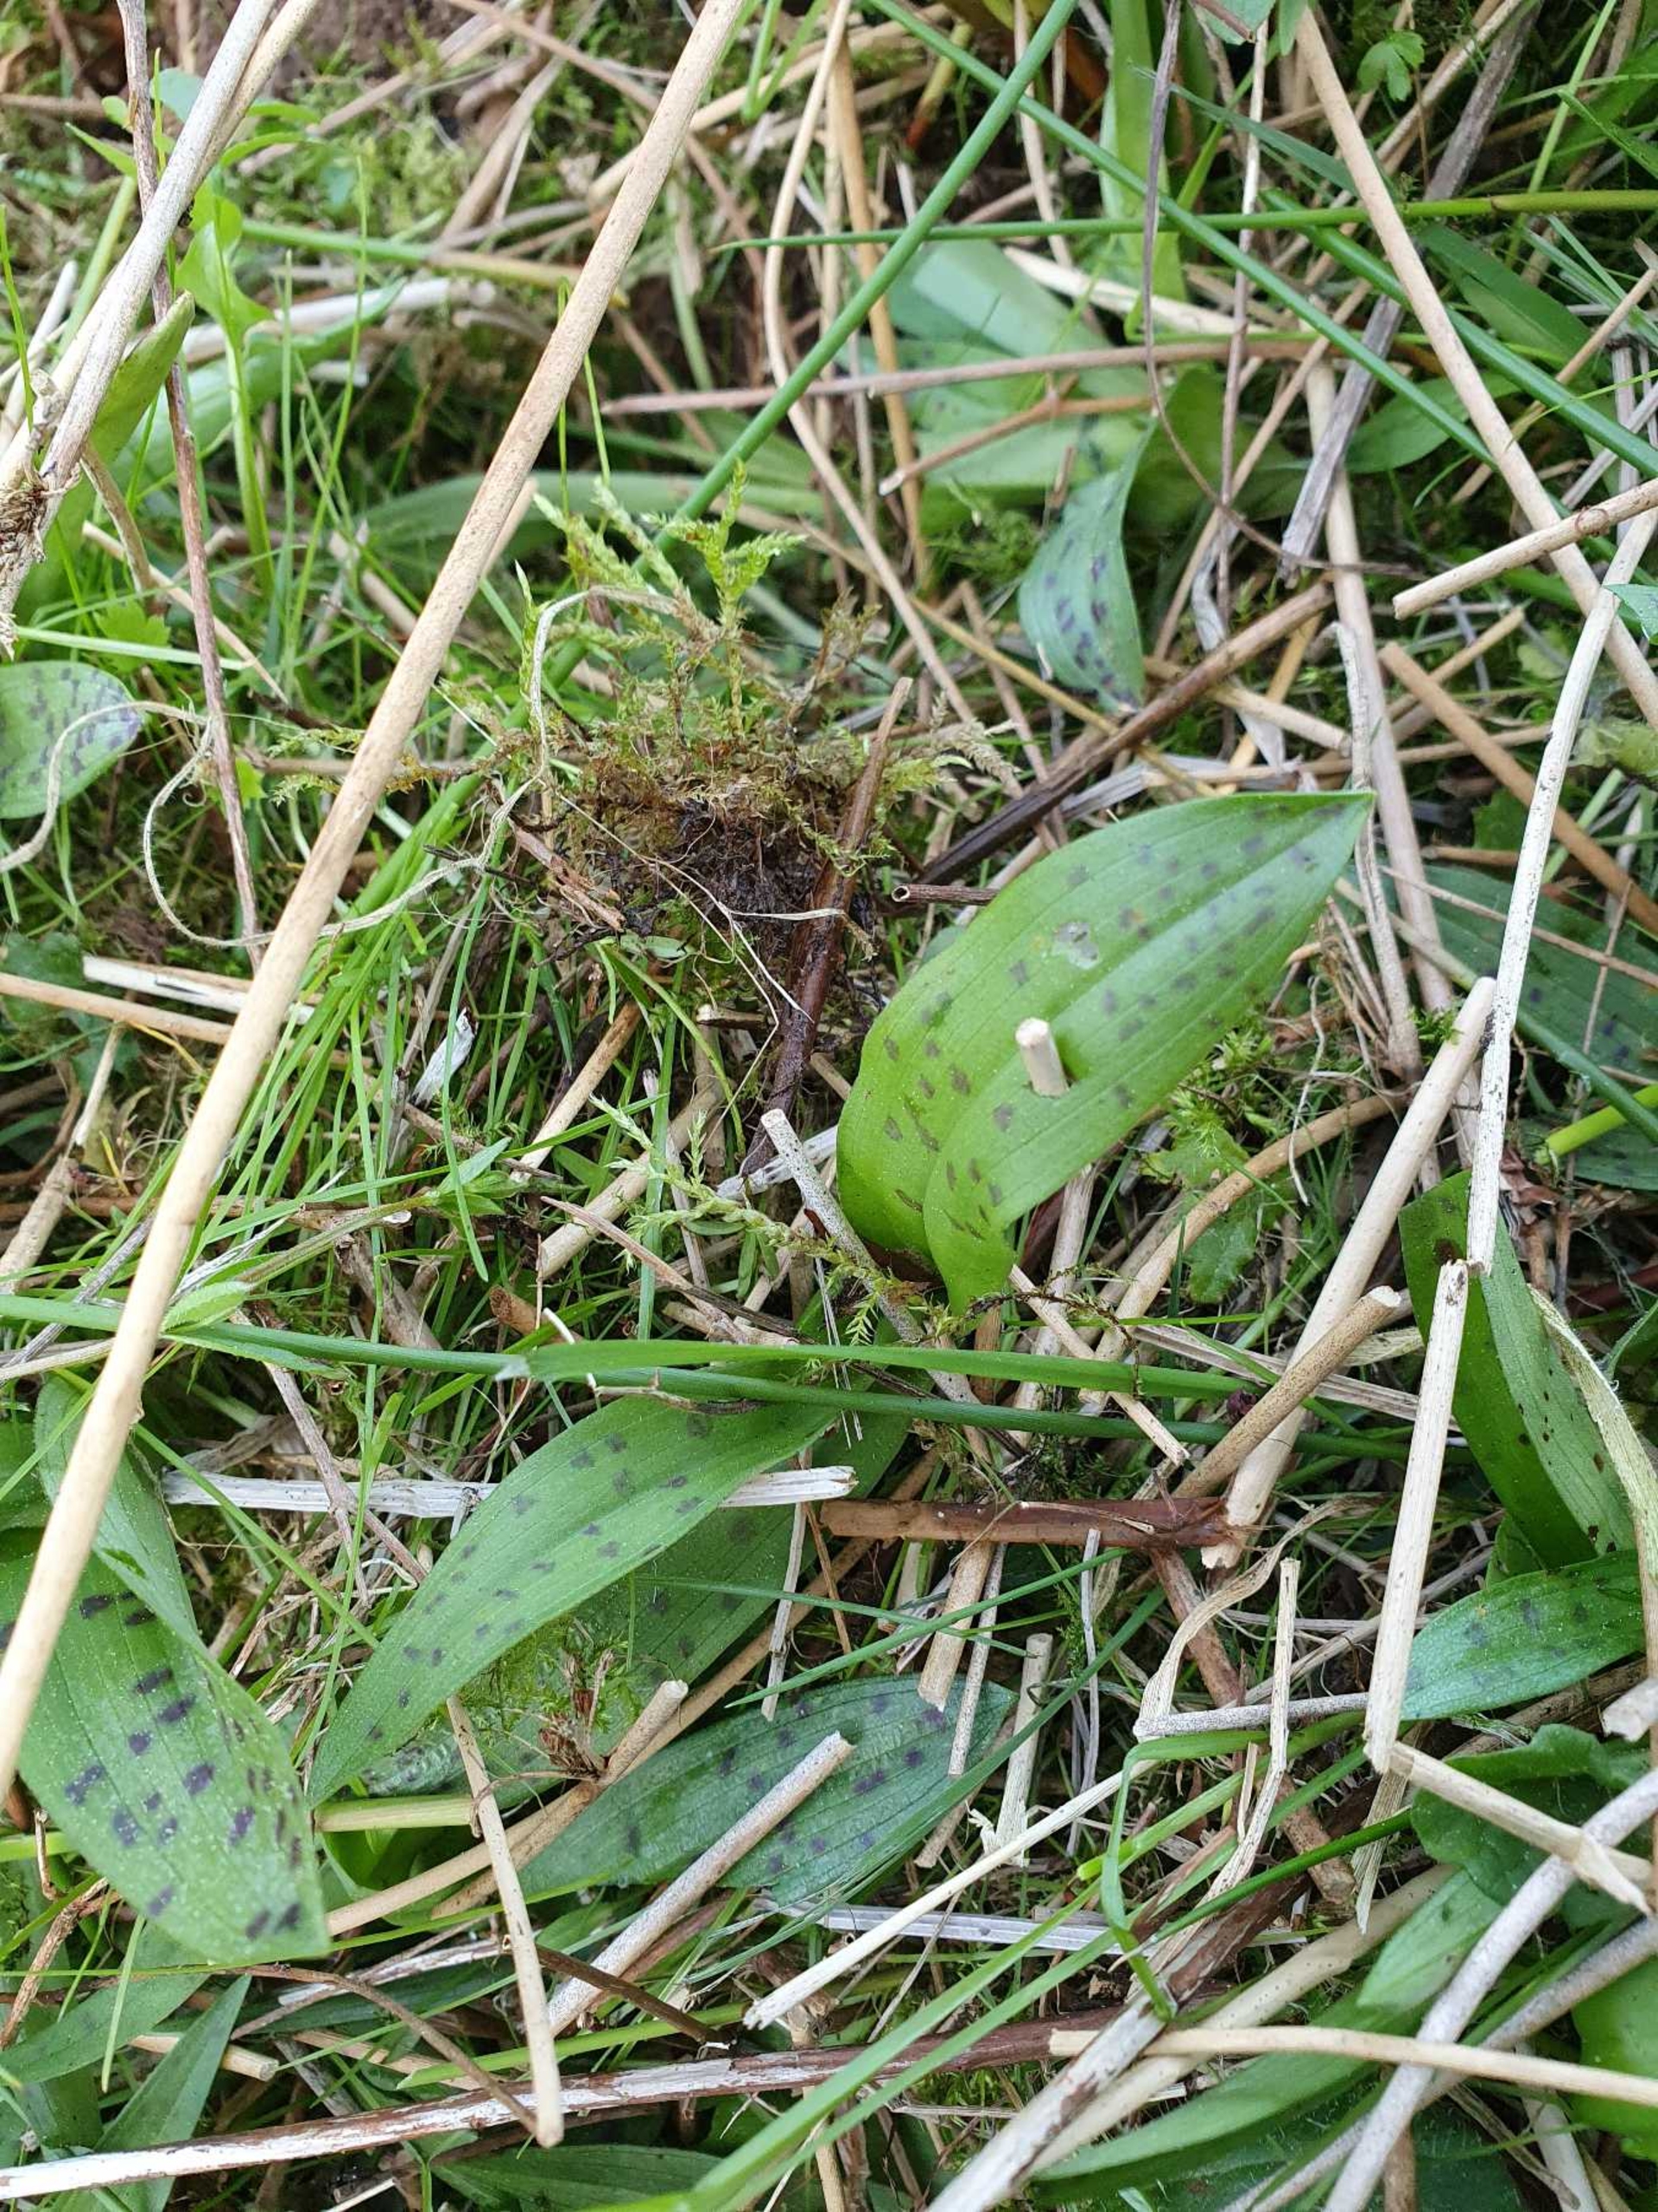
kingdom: Plantae
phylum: Tracheophyta
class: Liliopsida
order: Asparagales
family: Orchidaceae
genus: Dactylorhiza
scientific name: Dactylorhiza majalis
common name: Maj-gøgeurt
